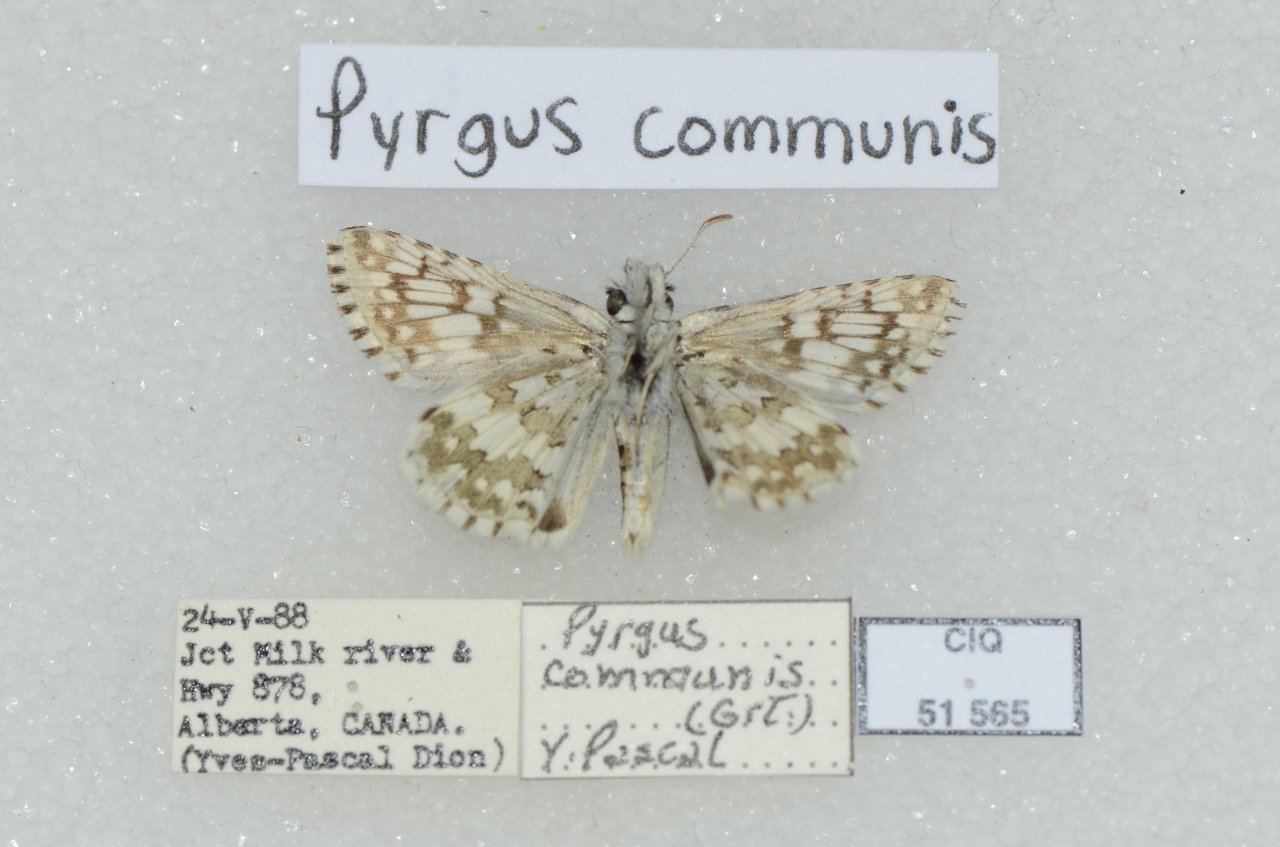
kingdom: Animalia
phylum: Arthropoda
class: Insecta
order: Lepidoptera
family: Hesperiidae
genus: Pyrgus
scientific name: Pyrgus communis
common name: Common Checkered-Skipper
